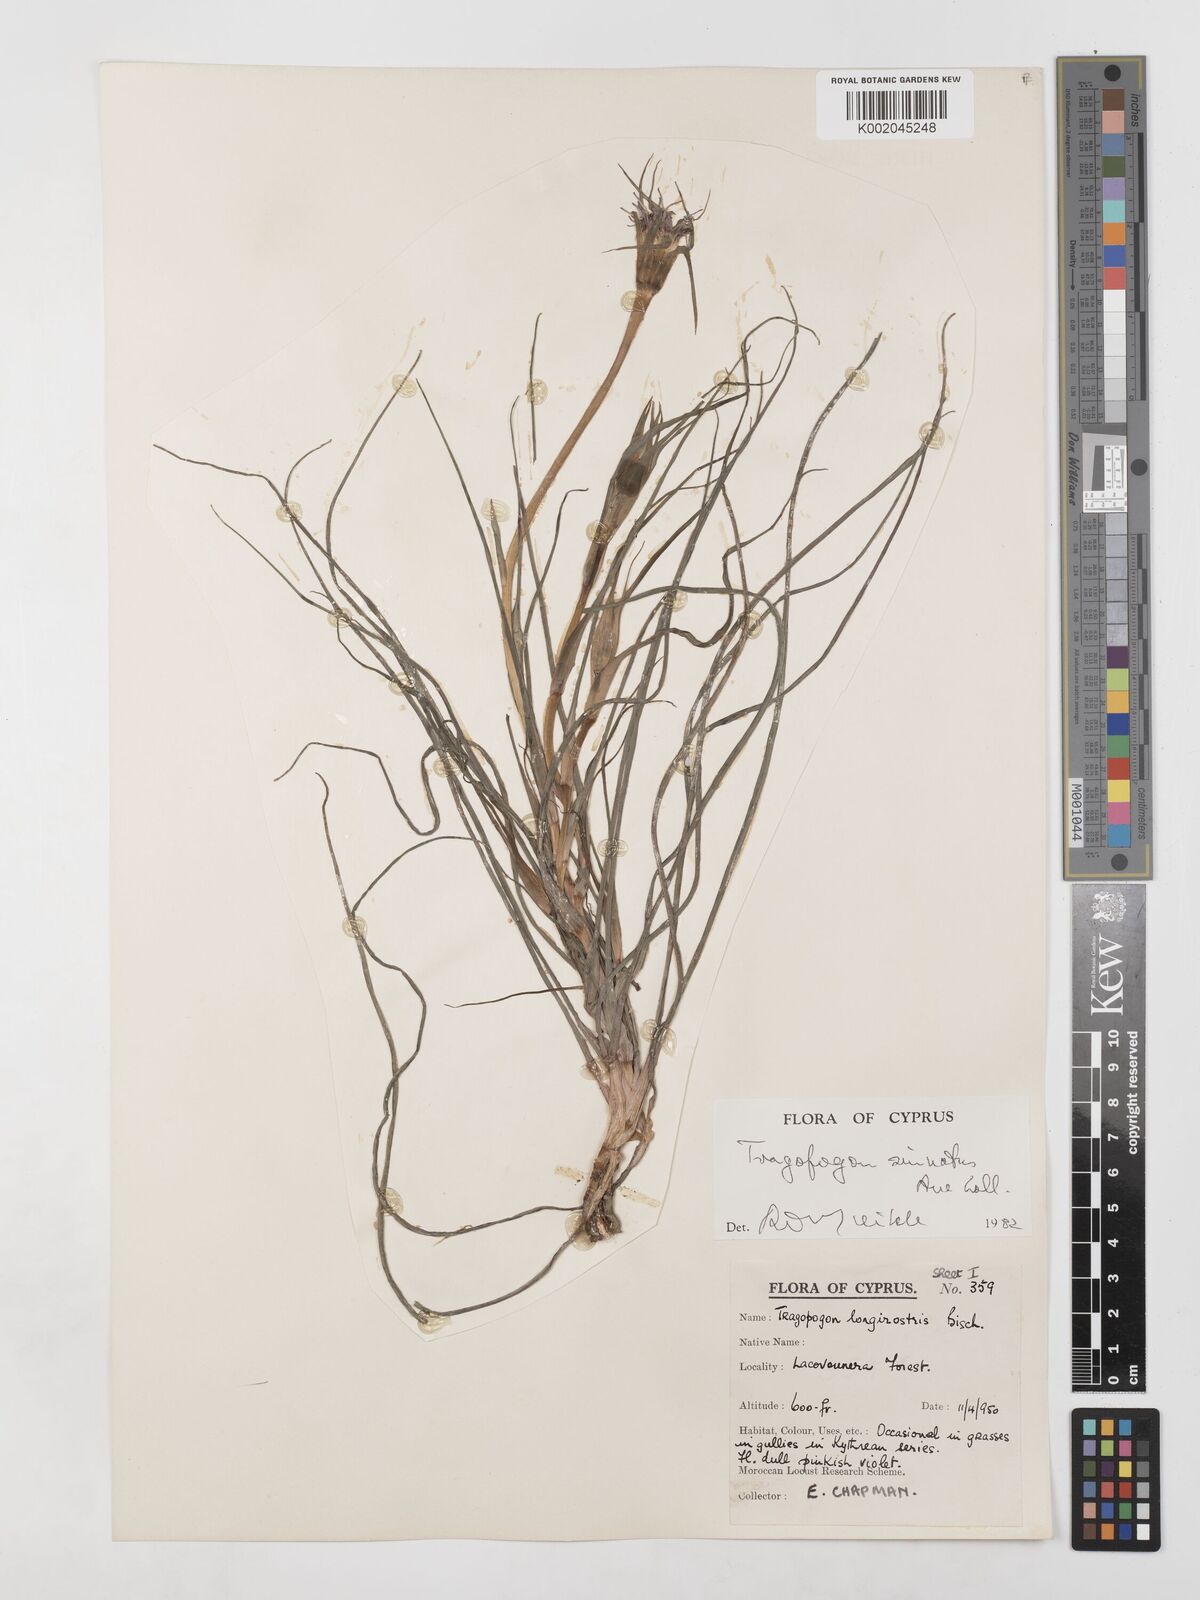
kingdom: Plantae
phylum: Tracheophyta
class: Magnoliopsida
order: Asterales
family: Asteraceae
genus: Tragopogon
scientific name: Tragopogon coelesyriacus
